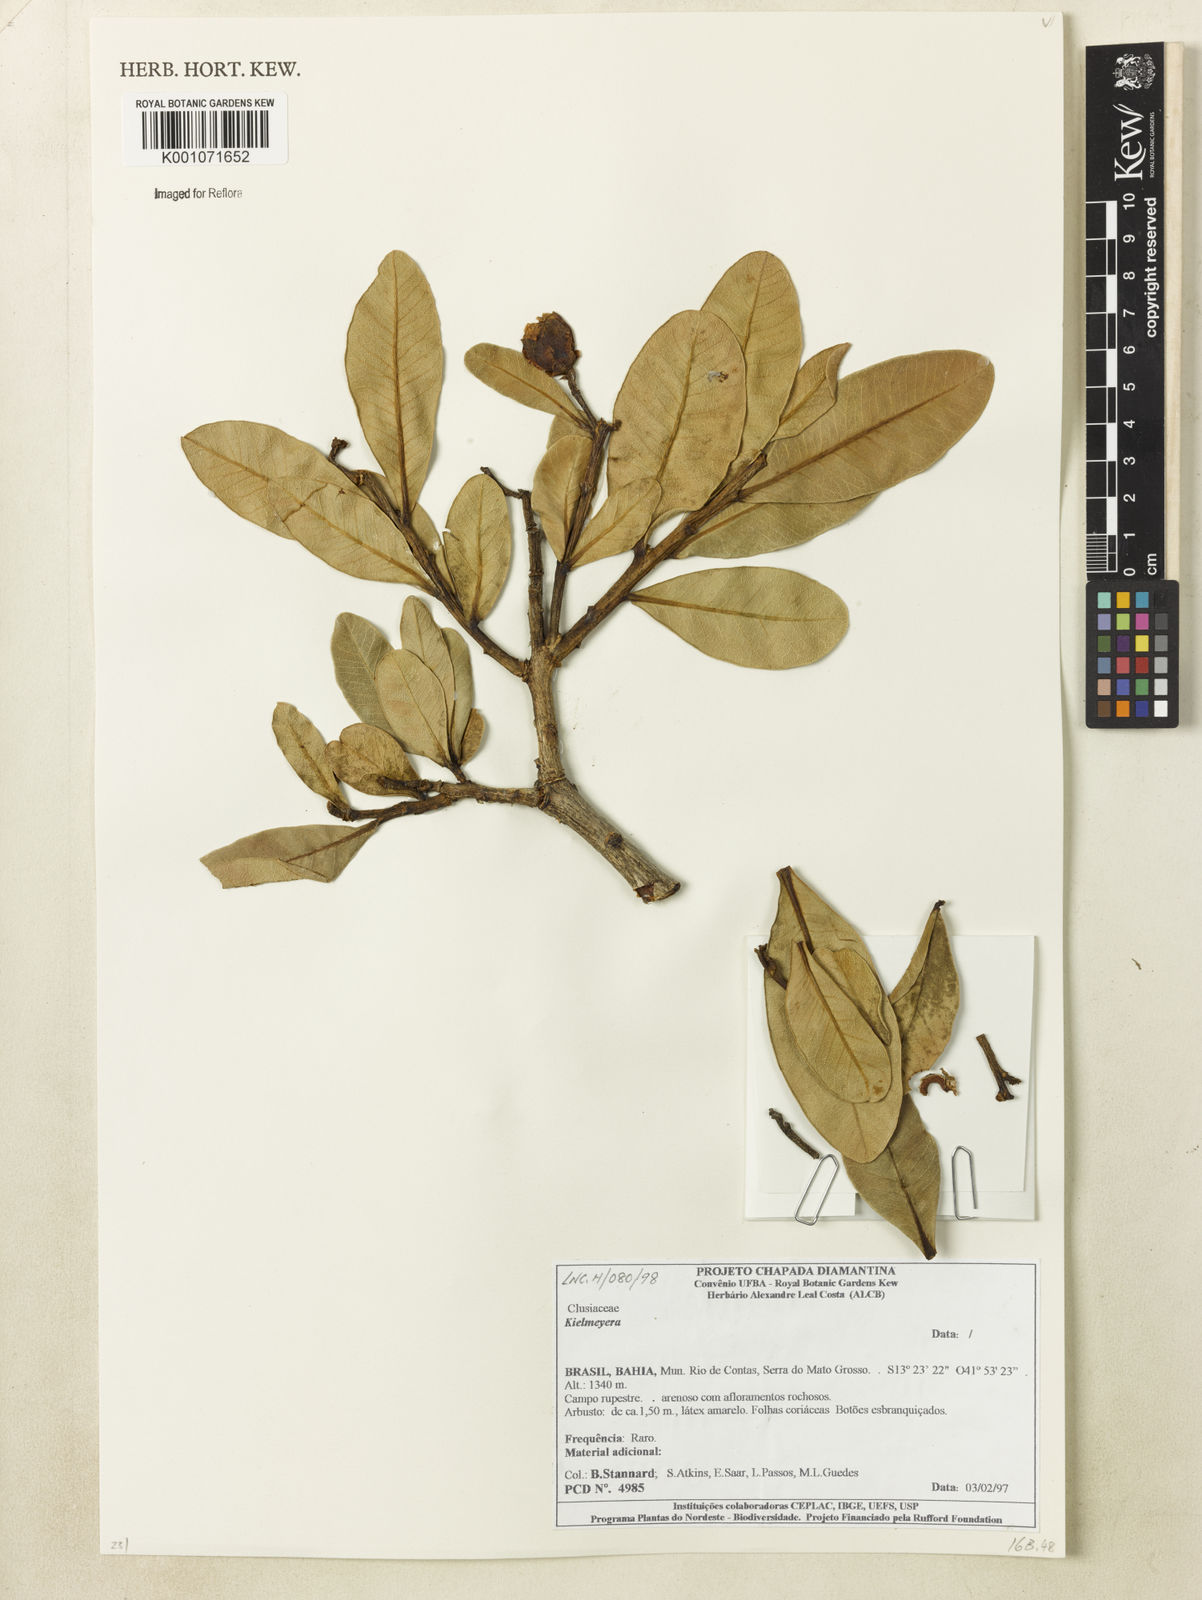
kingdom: Plantae
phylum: Tracheophyta
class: Magnoliopsida
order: Malpighiales
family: Calophyllaceae
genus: Kielmeyera
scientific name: Kielmeyera
